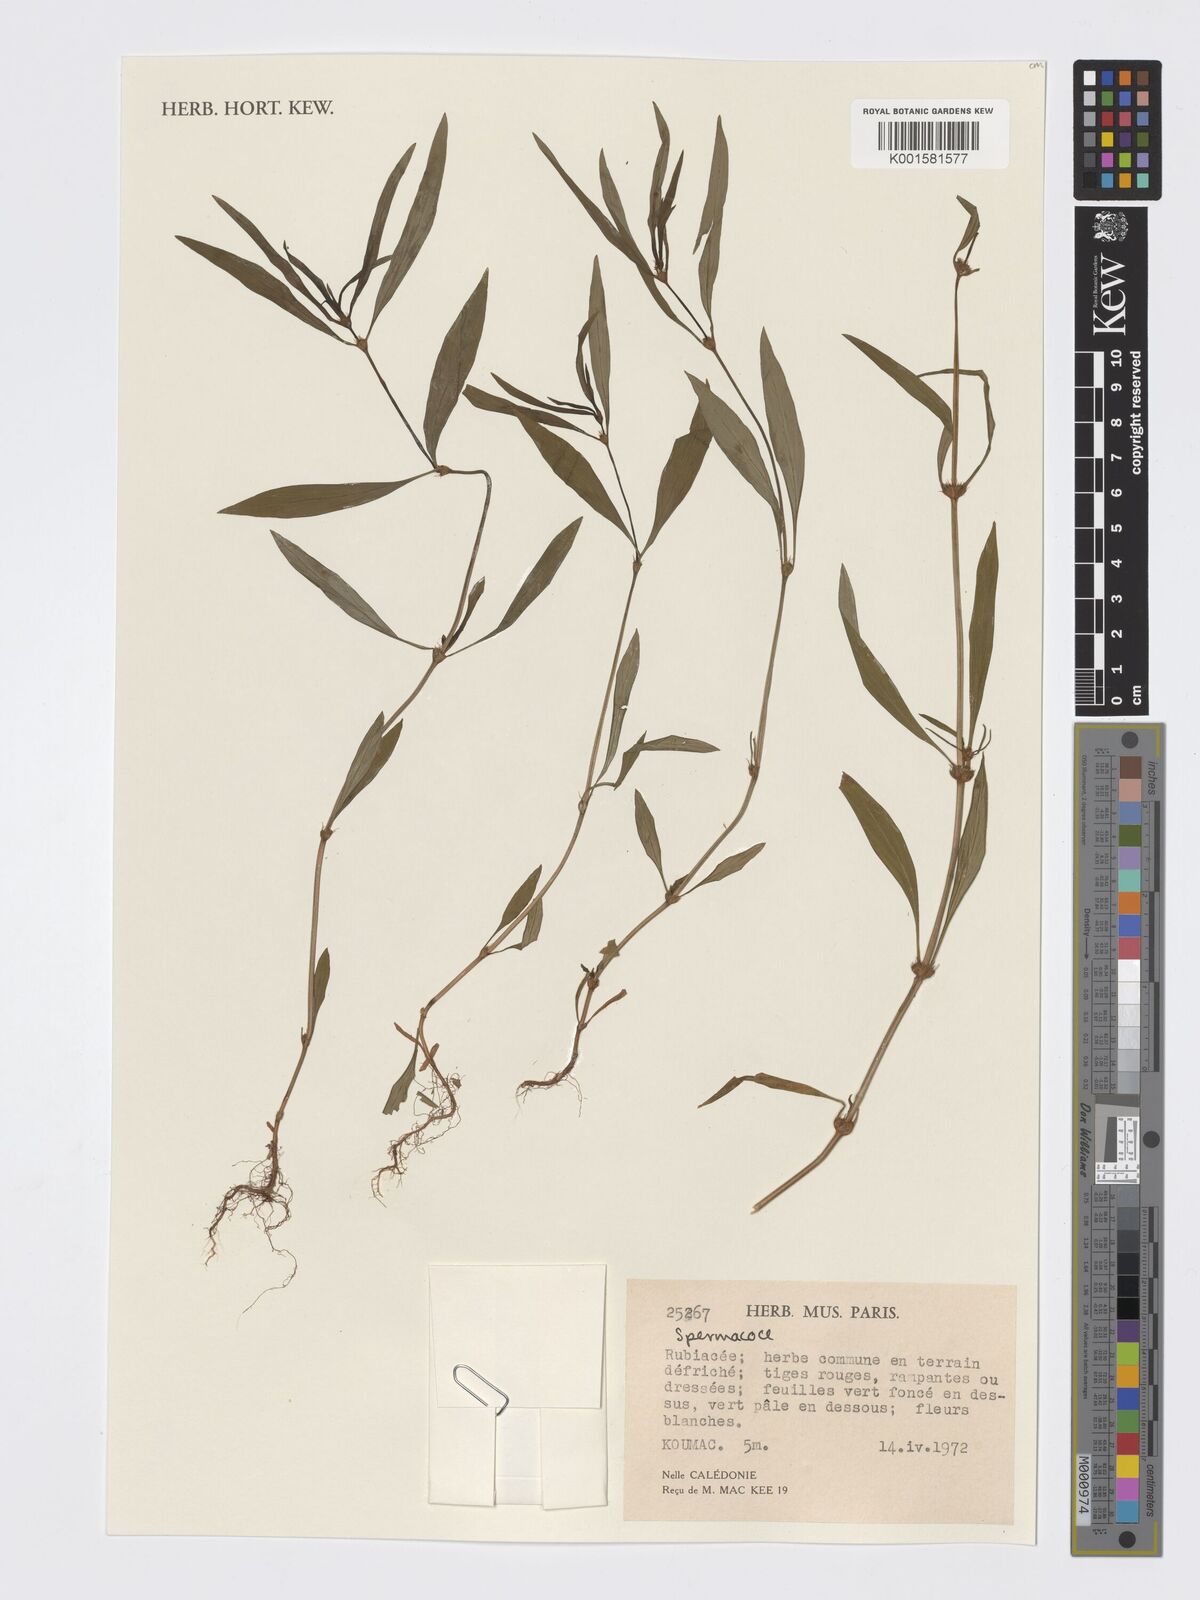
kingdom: Plantae
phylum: Tracheophyta
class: Magnoliopsida
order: Gentianales
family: Rubiaceae
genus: Spermacoce
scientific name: Spermacoce
